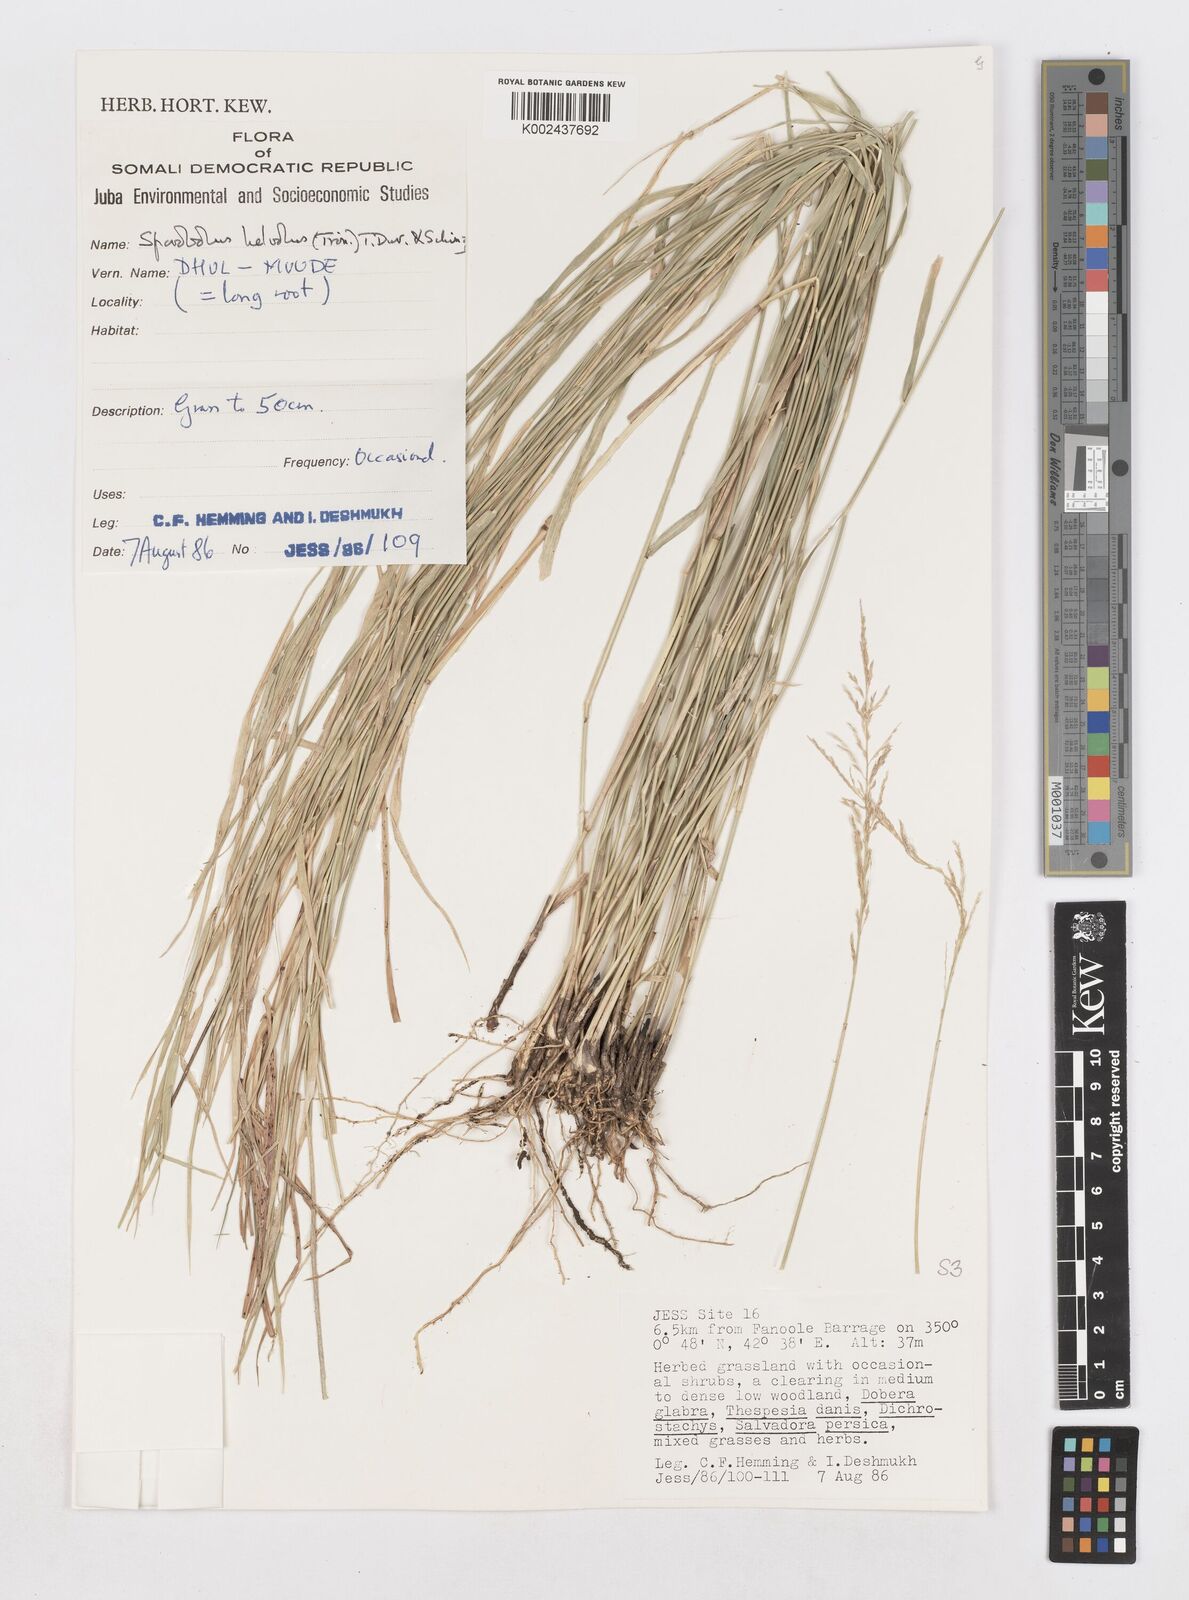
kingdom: Plantae
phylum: Tracheophyta
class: Liliopsida
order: Poales
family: Poaceae
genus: Sporobolus
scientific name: Sporobolus helvolus
